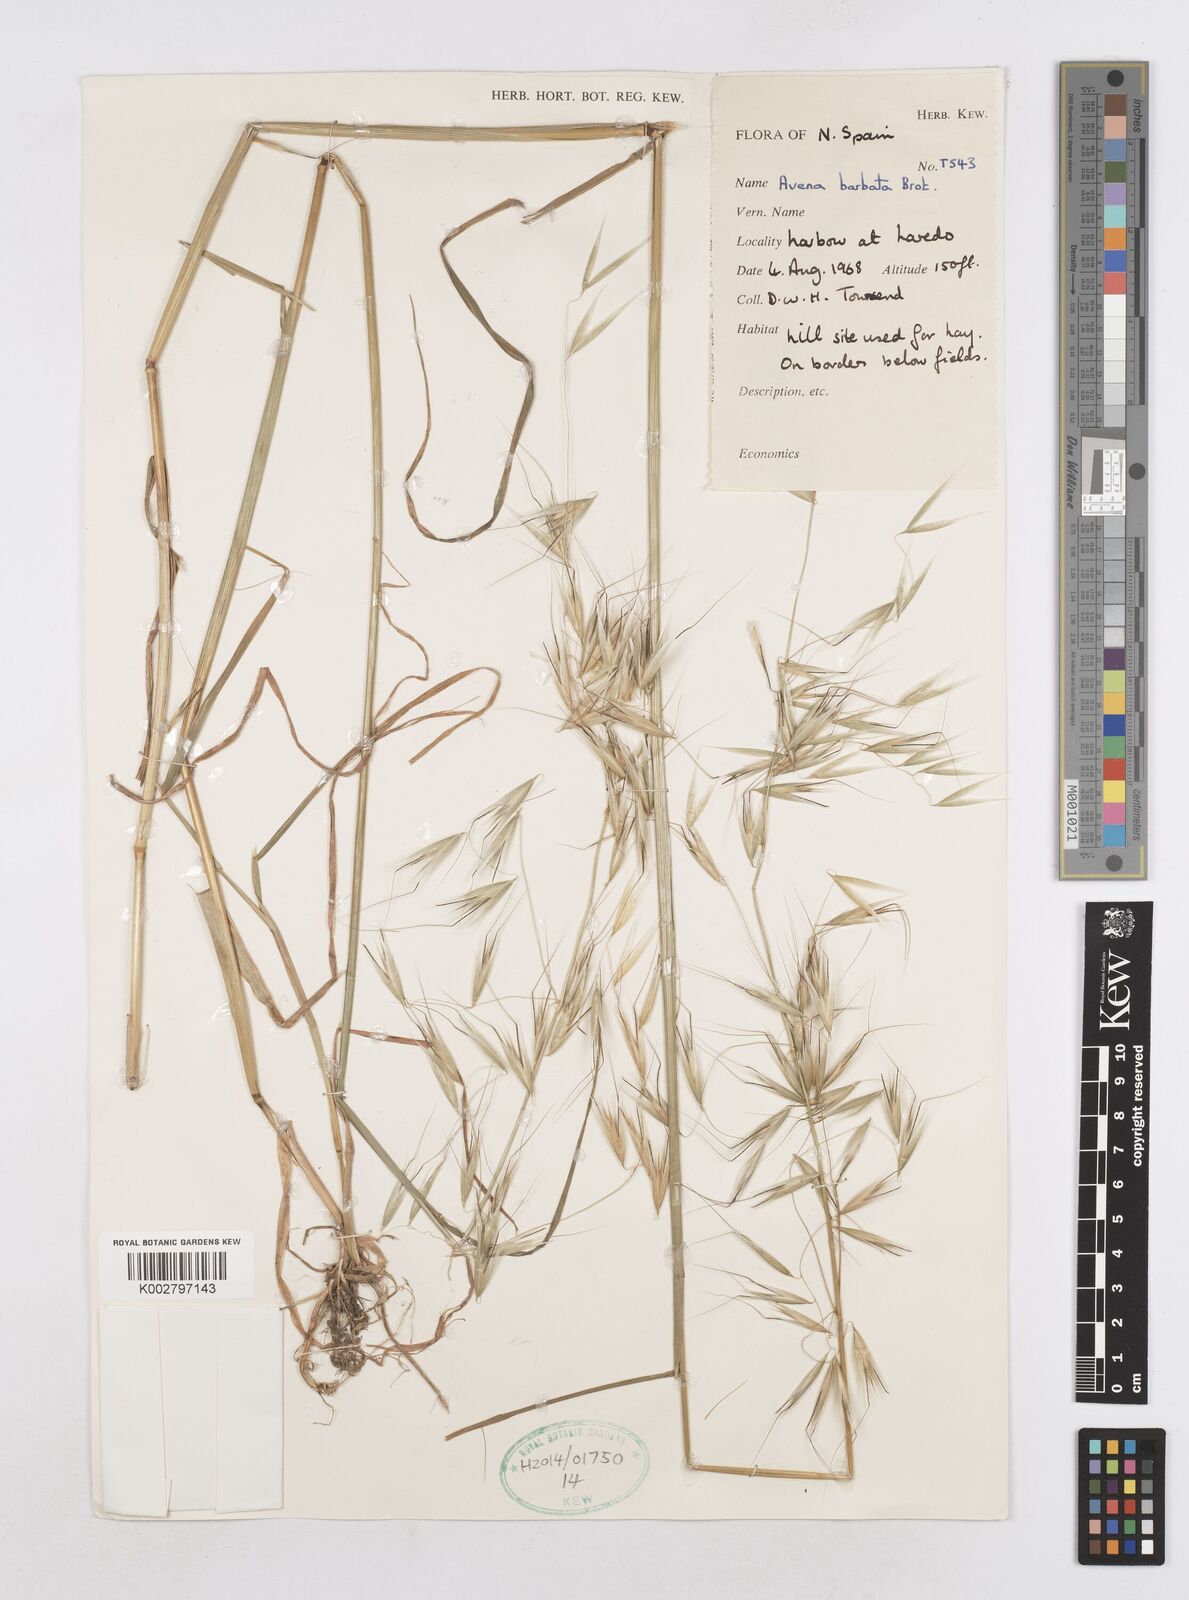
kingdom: Plantae
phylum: Tracheophyta
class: Liliopsida
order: Poales
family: Poaceae
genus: Avena
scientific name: Avena
